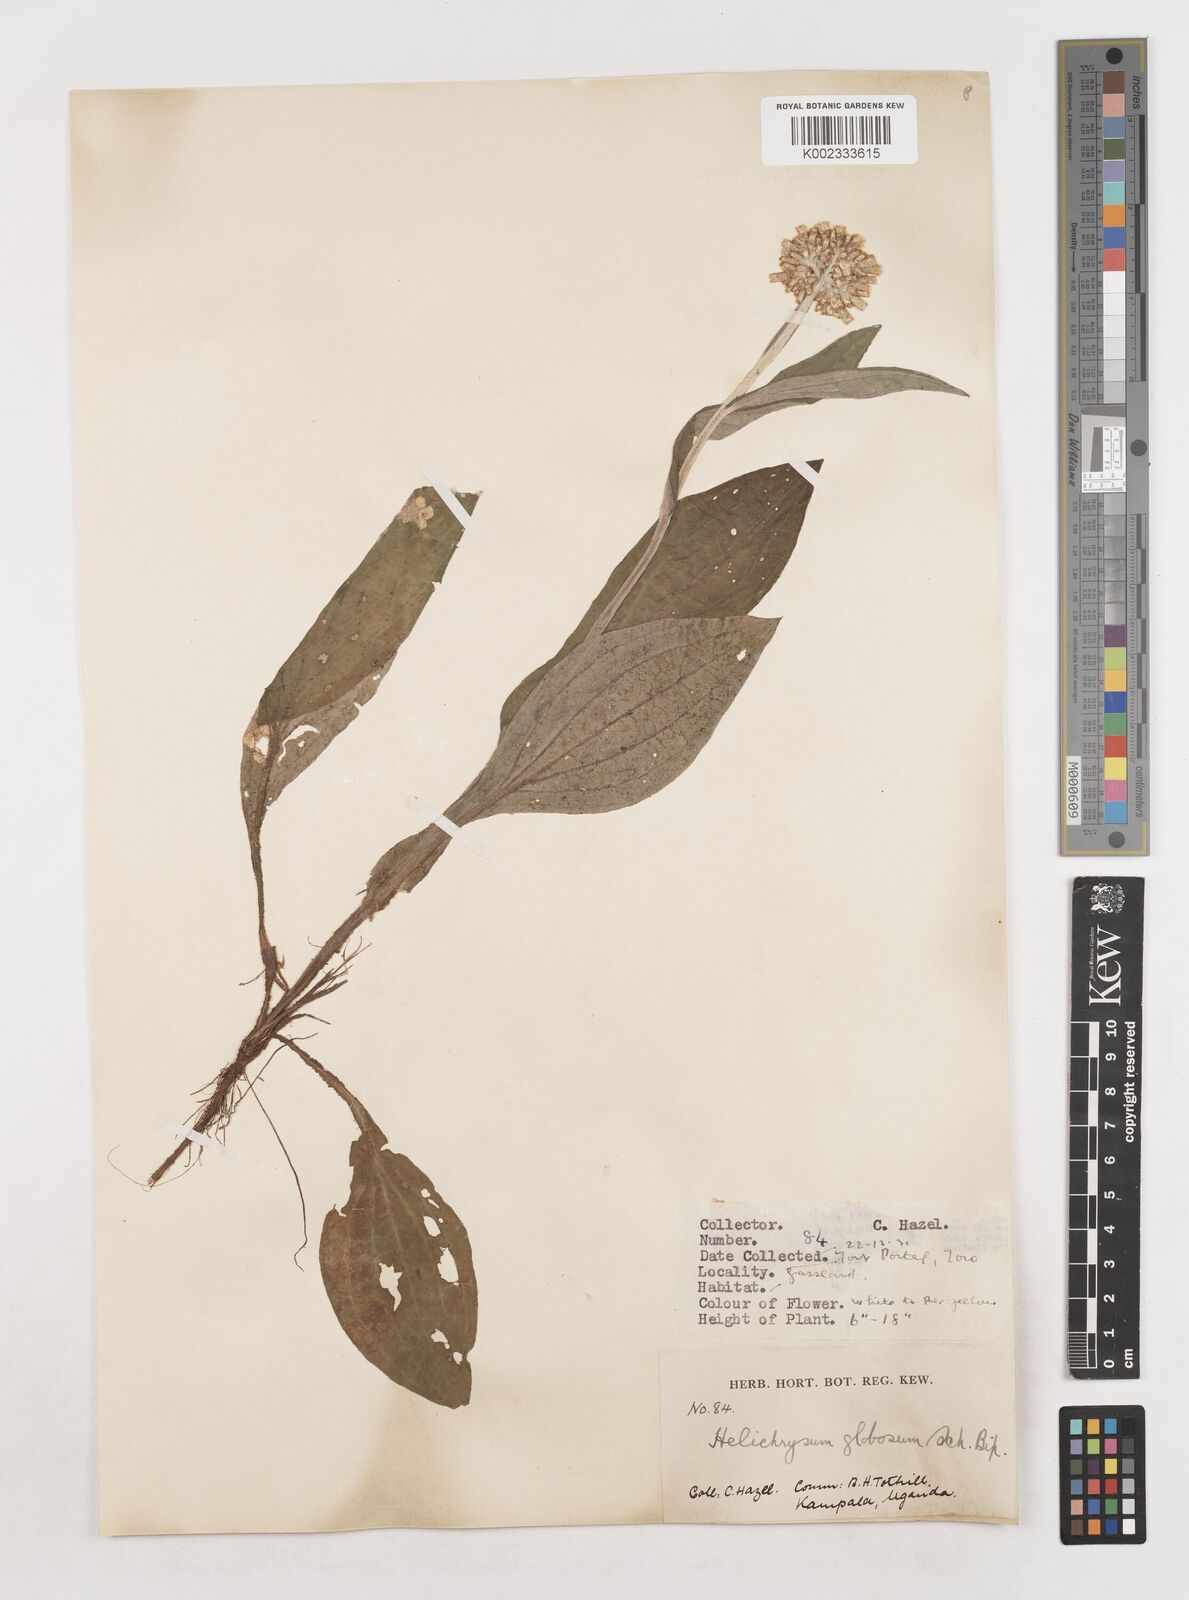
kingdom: Plantae
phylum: Tracheophyta
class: Magnoliopsida
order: Asterales
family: Asteraceae
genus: Helichrysum
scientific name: Helichrysum globosum
